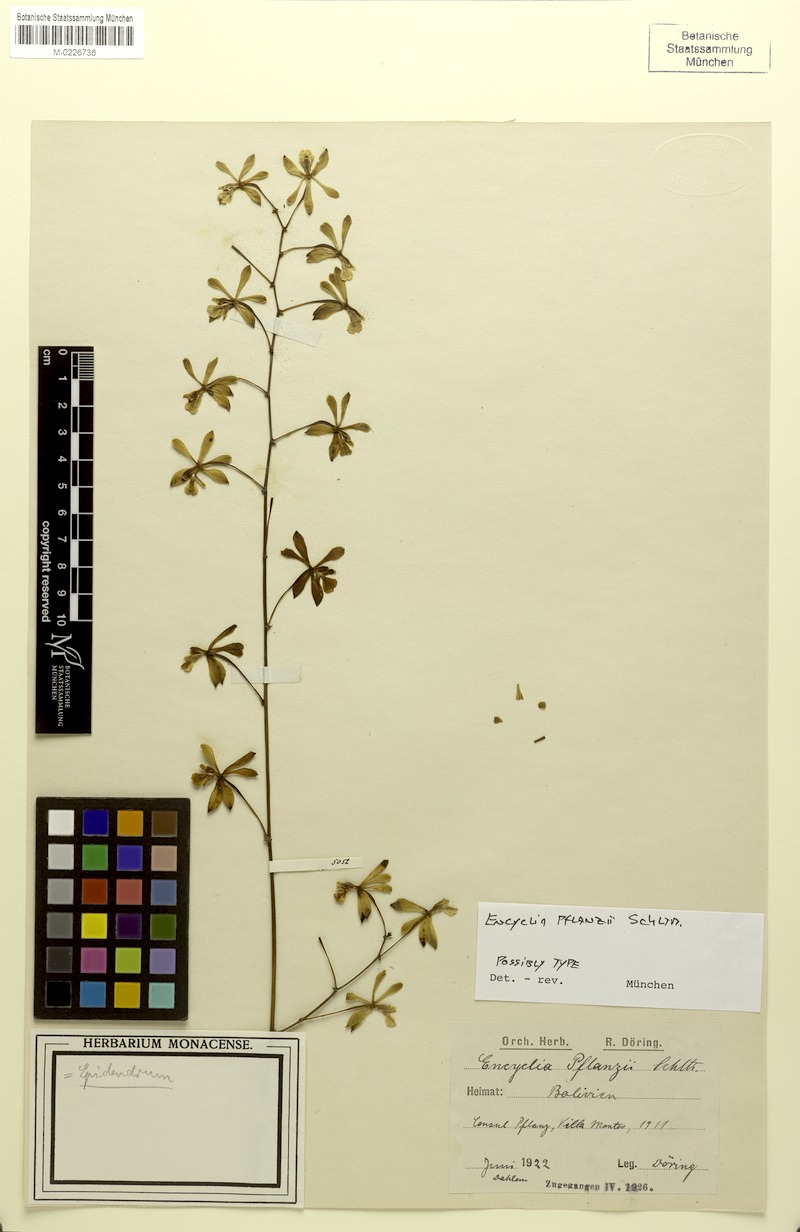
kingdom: Plantae
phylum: Tracheophyta
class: Liliopsida
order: Asparagales
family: Orchidaceae
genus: Encyclia
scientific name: Encyclia thrombodes
